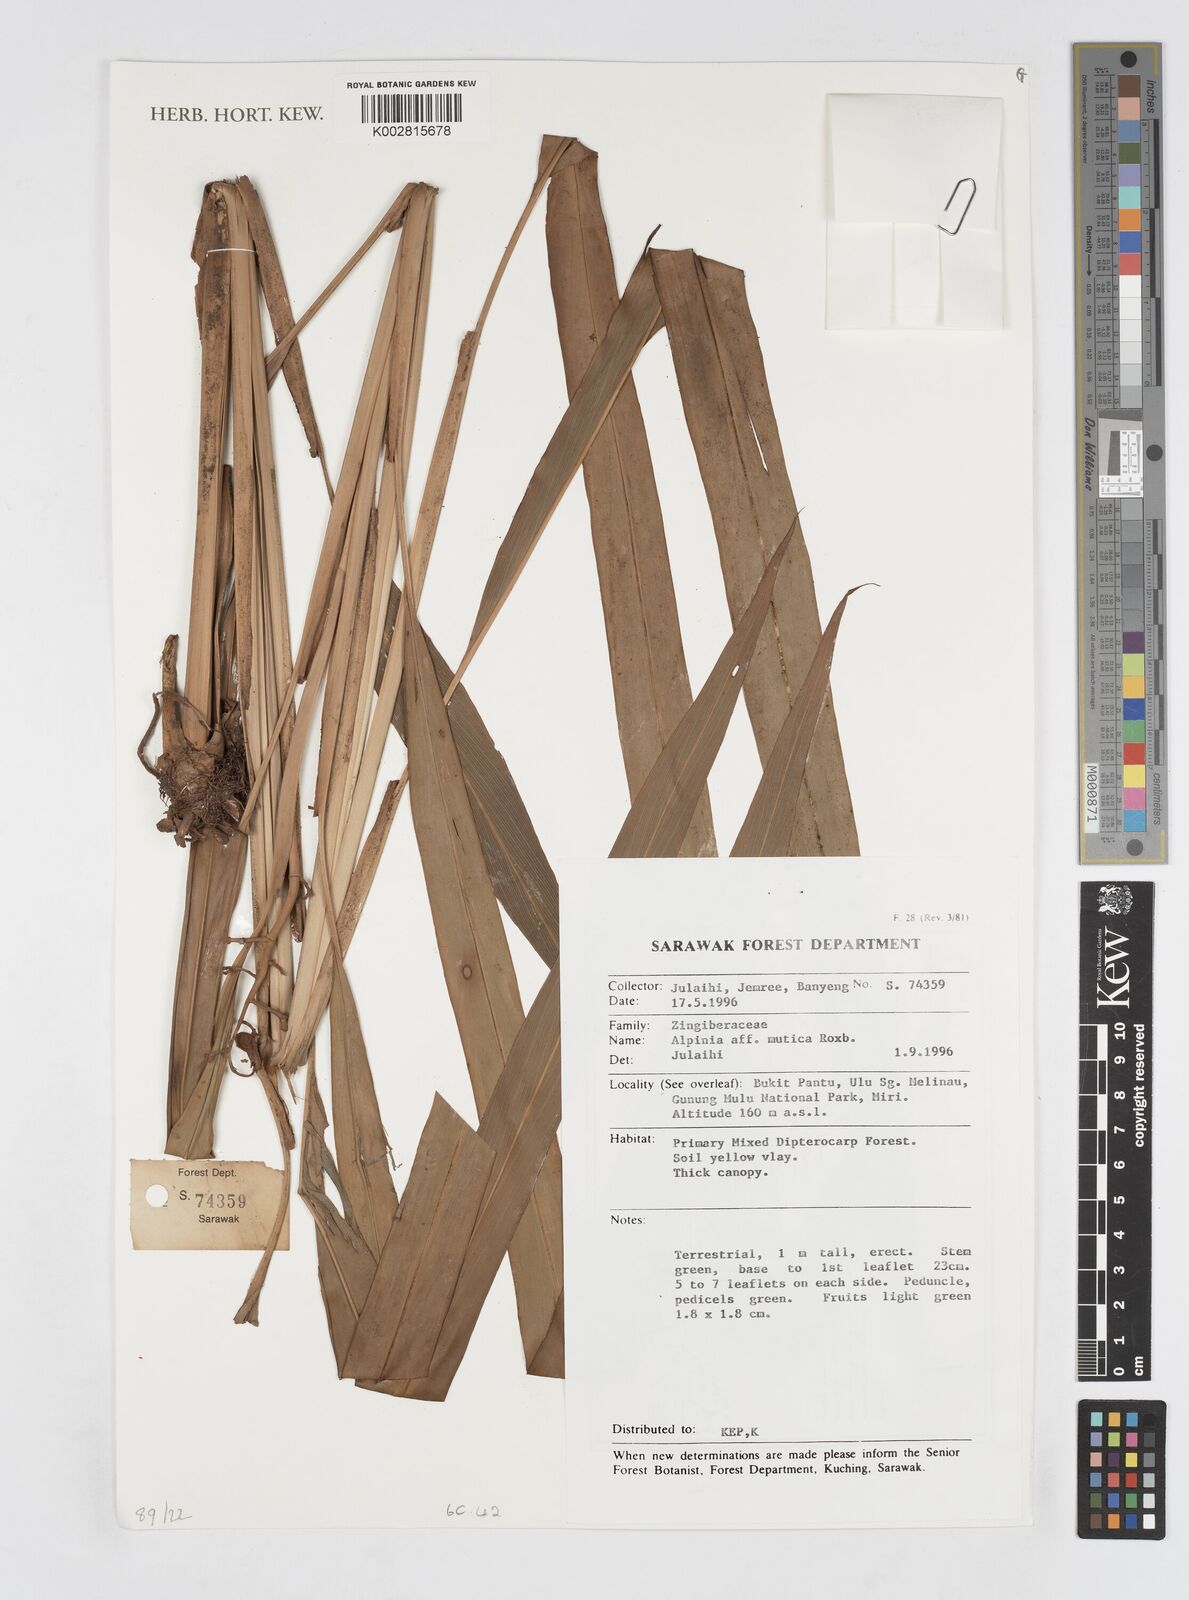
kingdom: Plantae
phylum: Tracheophyta
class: Liliopsida
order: Zingiberales
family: Zingiberaceae
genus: Alpinia
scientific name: Alpinia mutica
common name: Small shell ginger
